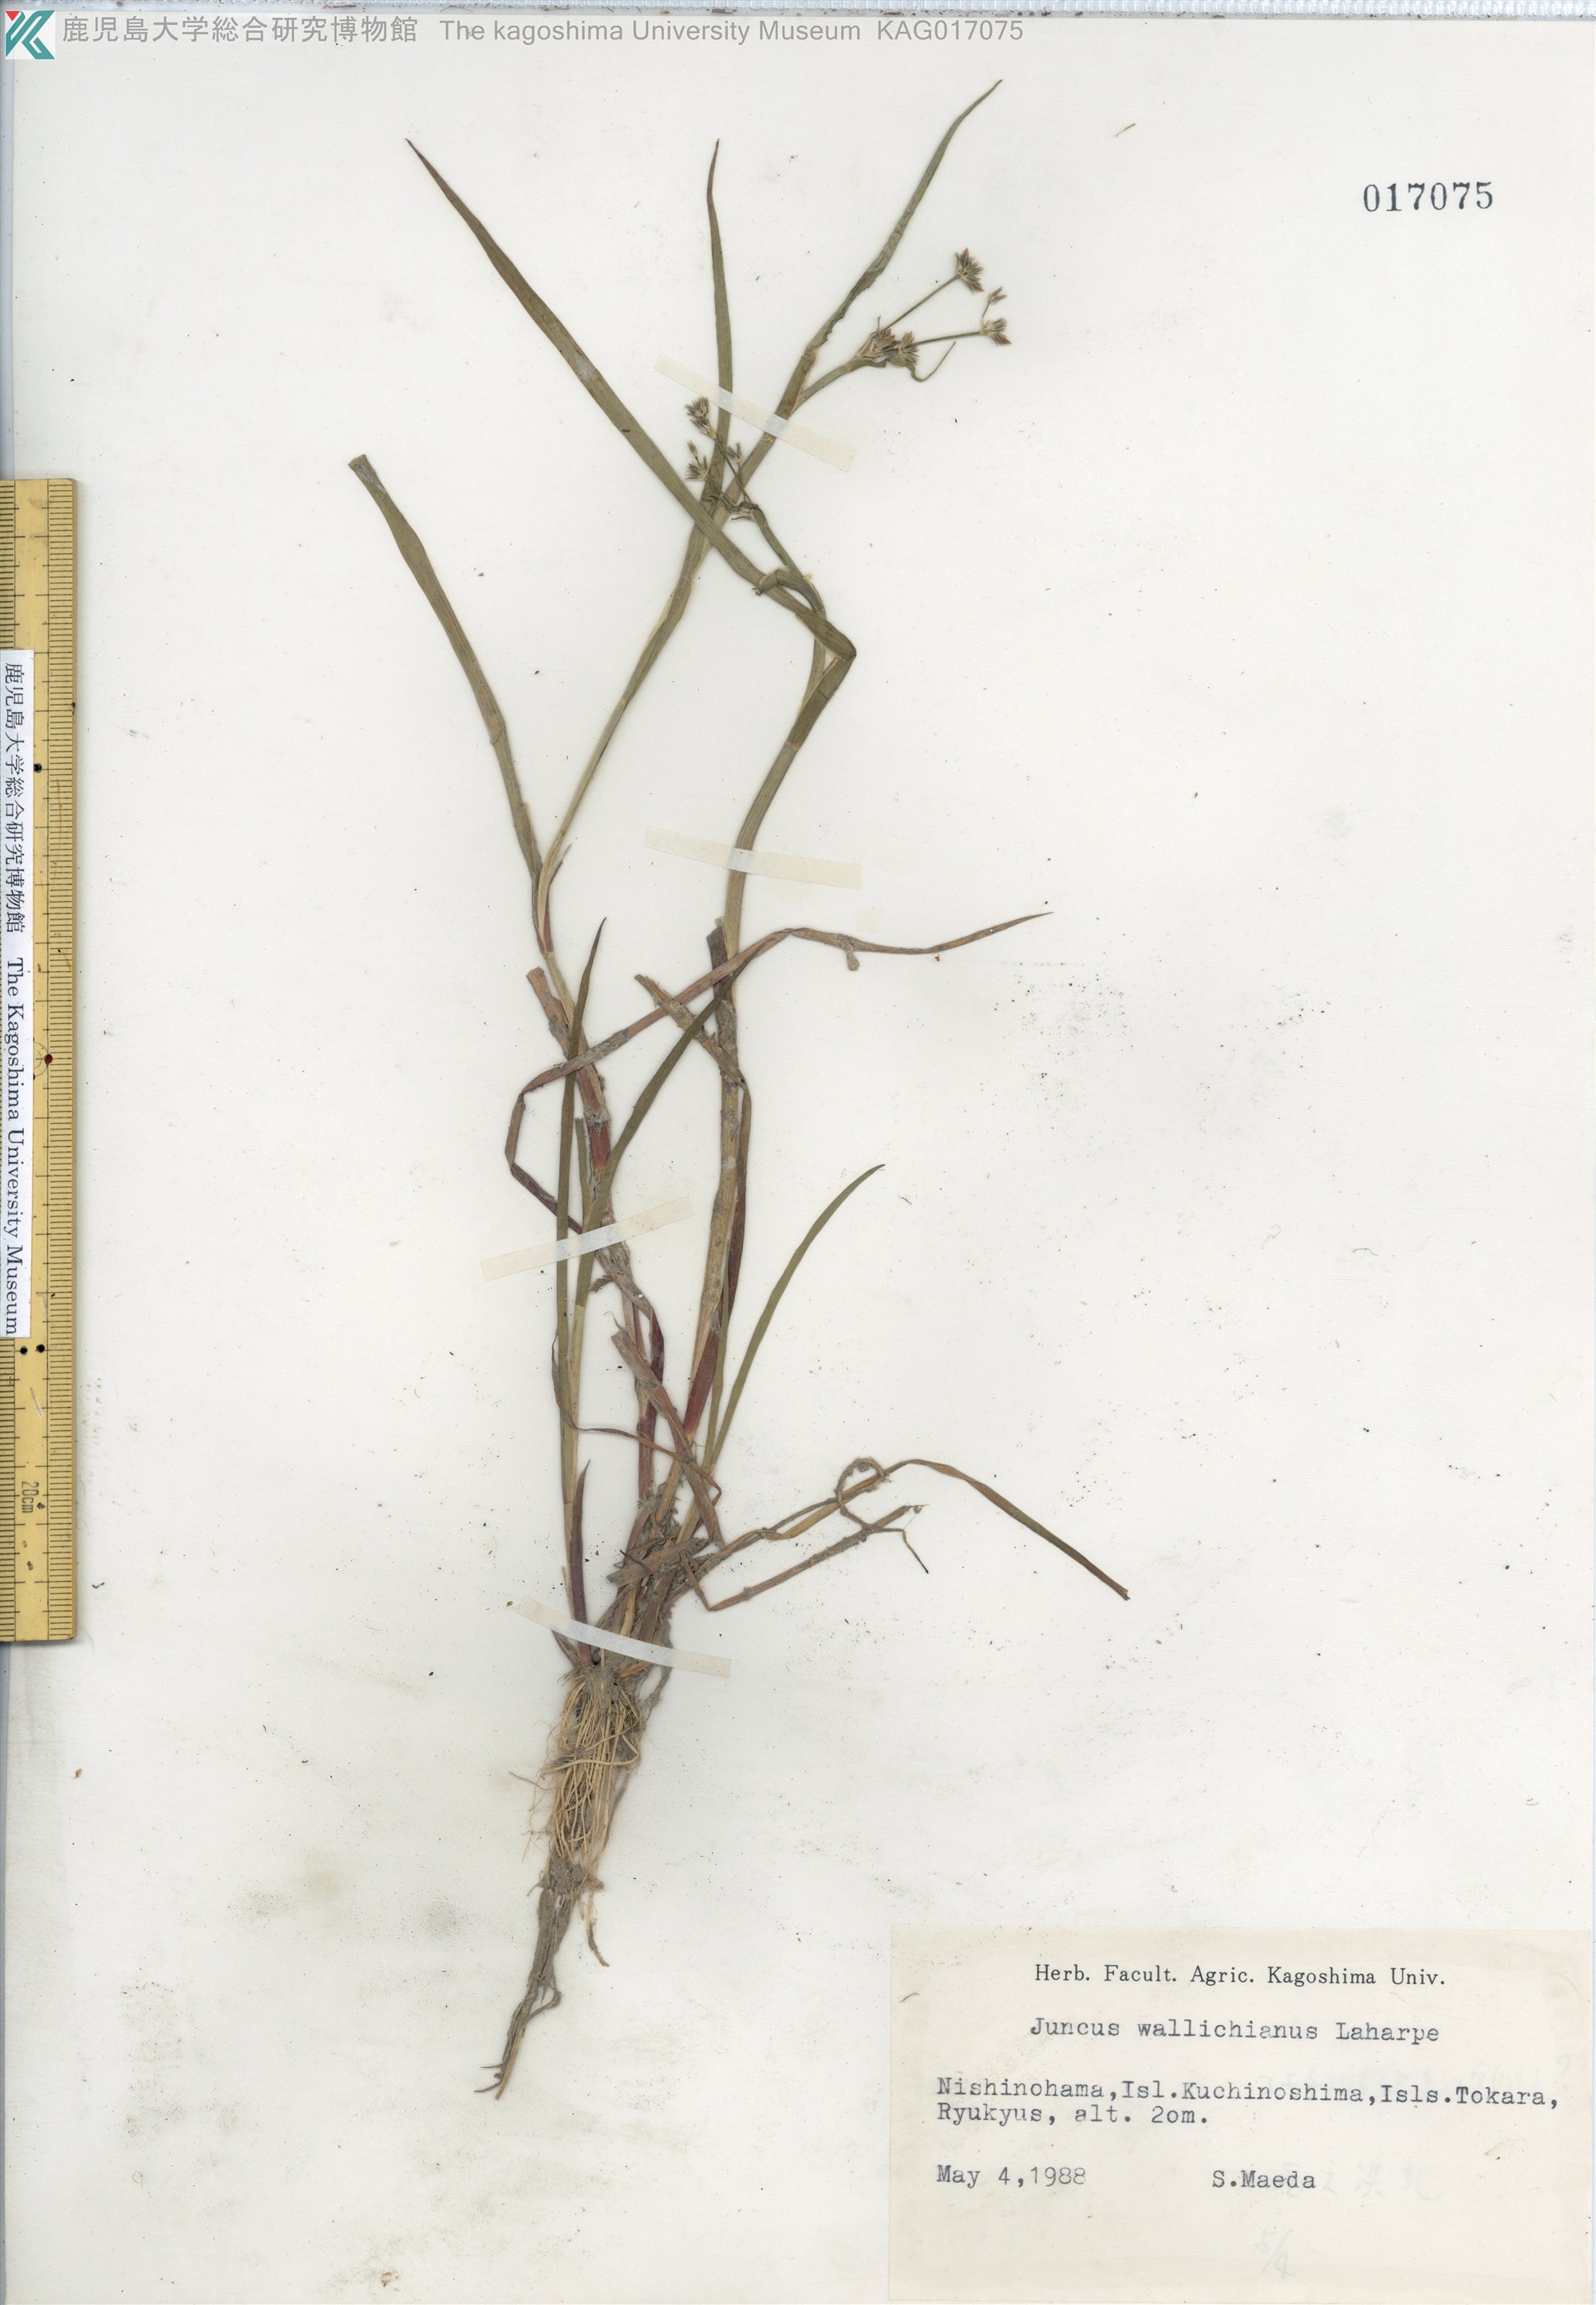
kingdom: Plantae
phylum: Tracheophyta
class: Liliopsida
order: Poales
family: Juncaceae
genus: Juncus
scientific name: Juncus prismatocarpus
